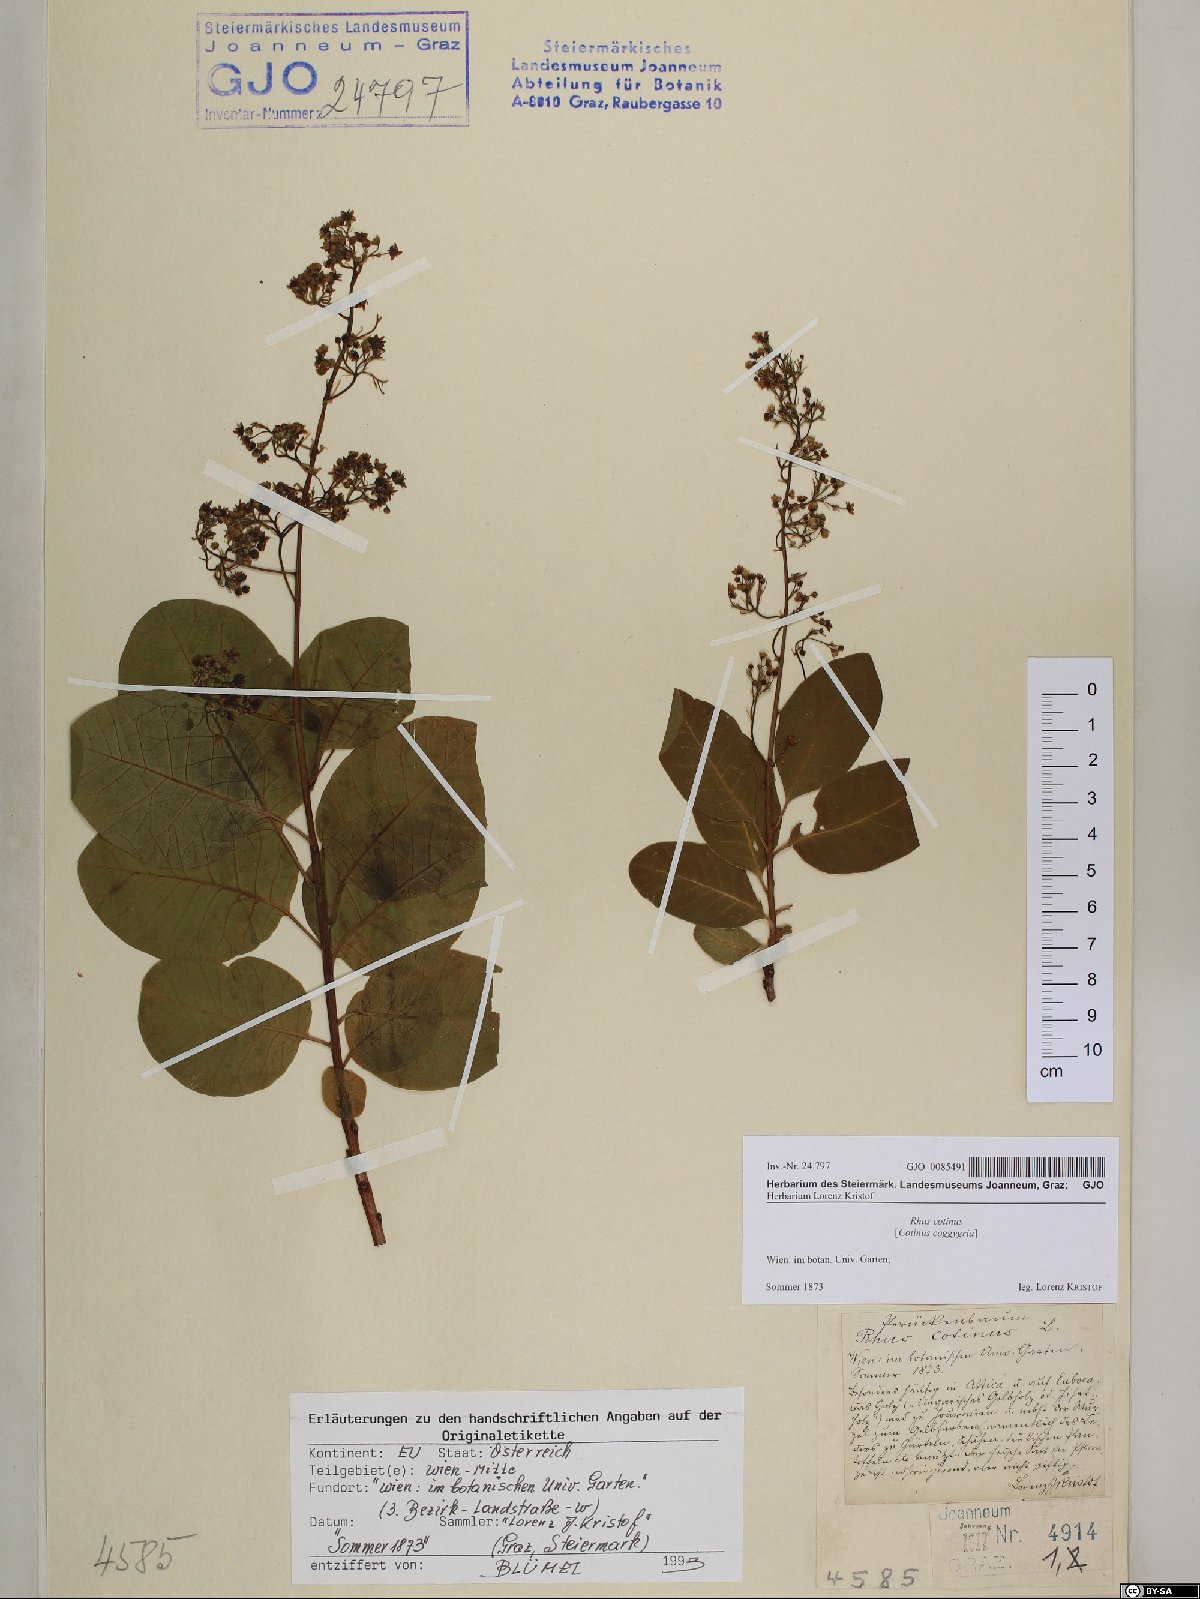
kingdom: Plantae
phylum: Tracheophyta
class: Magnoliopsida
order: Sapindales
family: Anacardiaceae
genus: Cotinus
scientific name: Cotinus coggygria
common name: Smoke-tree
